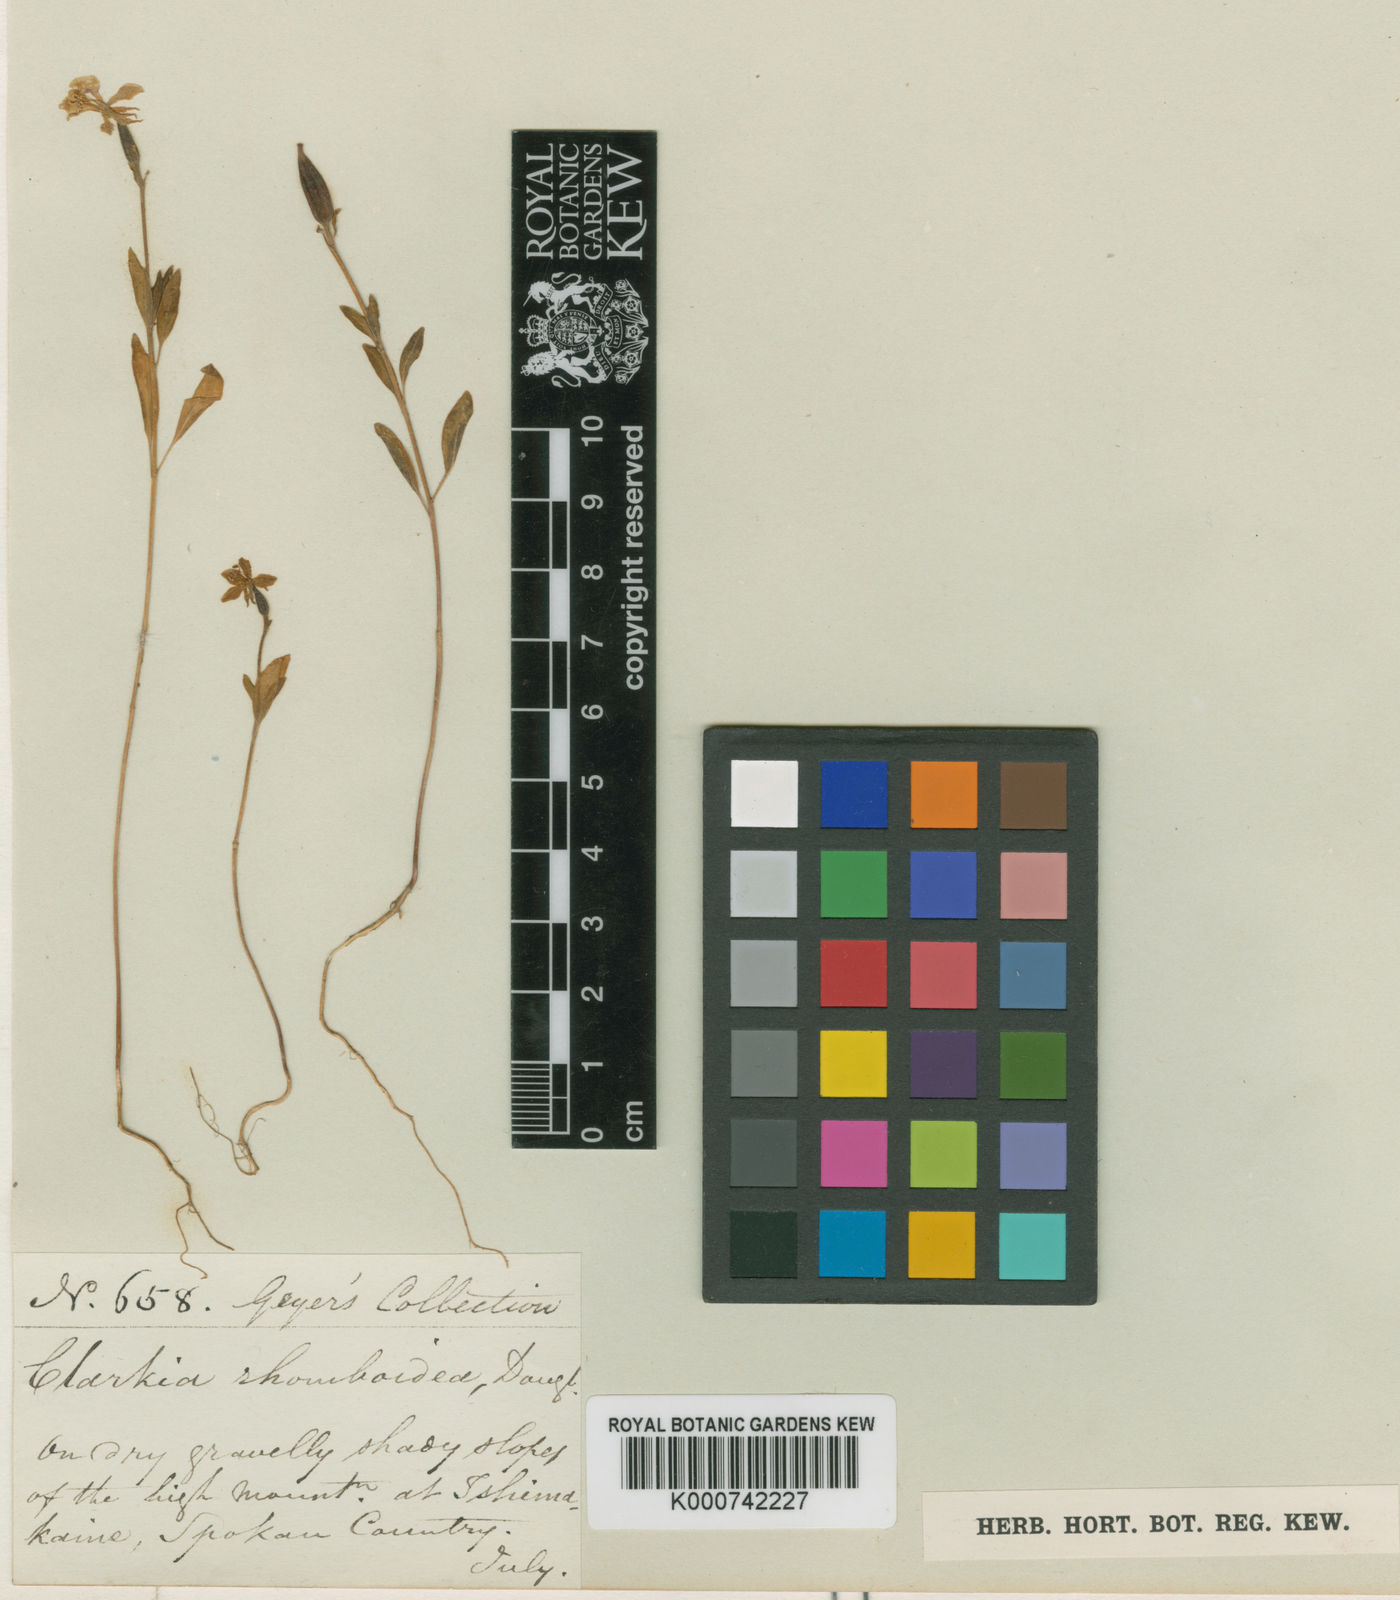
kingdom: Plantae
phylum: Tracheophyta
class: Magnoliopsida
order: Myrtales
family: Onagraceae
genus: Clarkia
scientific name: Clarkia rhomboidea
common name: Broadleaf clarkia
